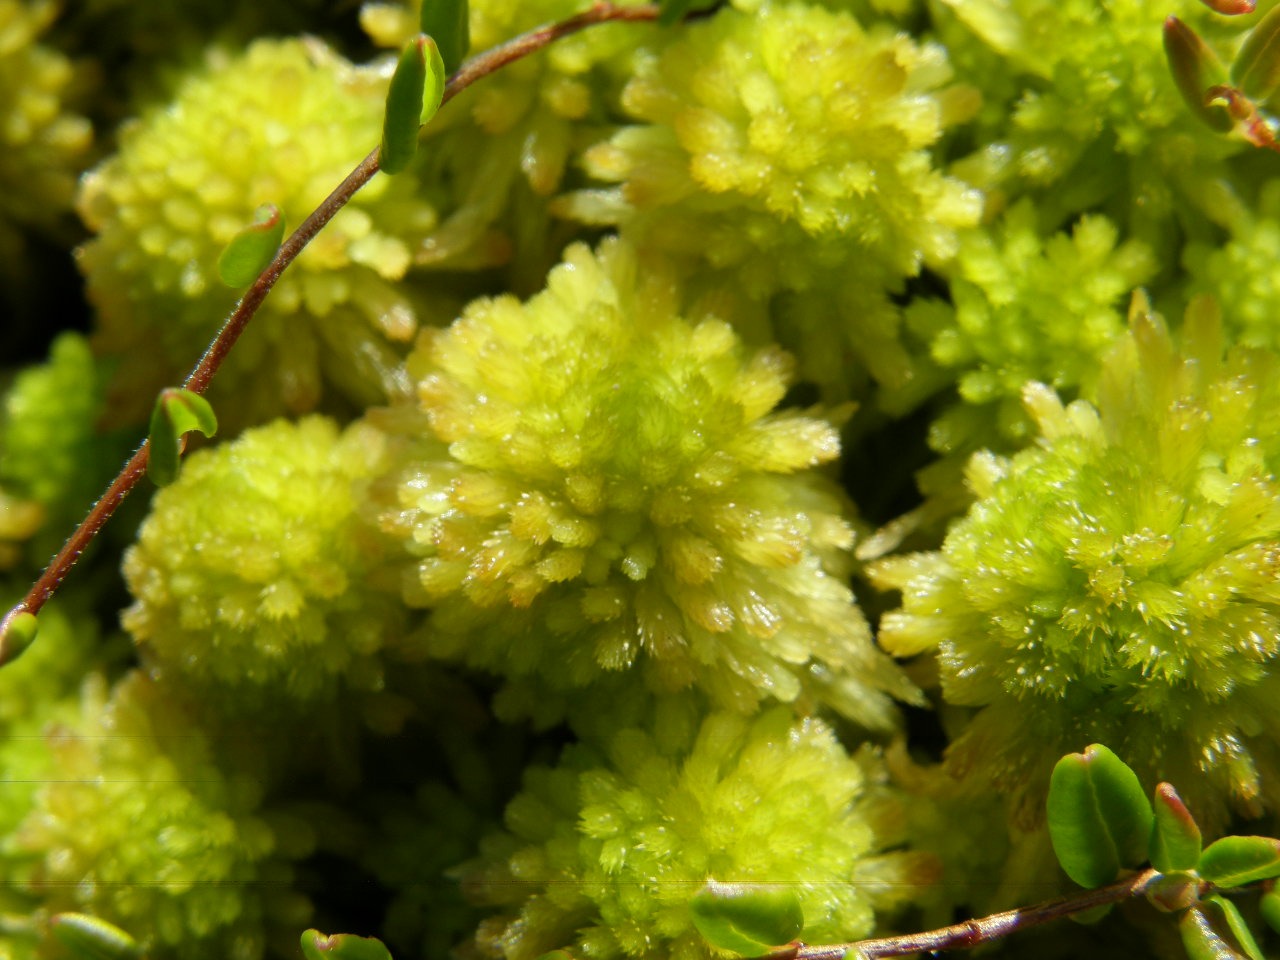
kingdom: Plantae
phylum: Bryophyta
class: Sphagnopsida
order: Sphagnales
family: Sphagnaceae
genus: Sphagnum
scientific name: Sphagnum
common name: Tørvemosslægten
